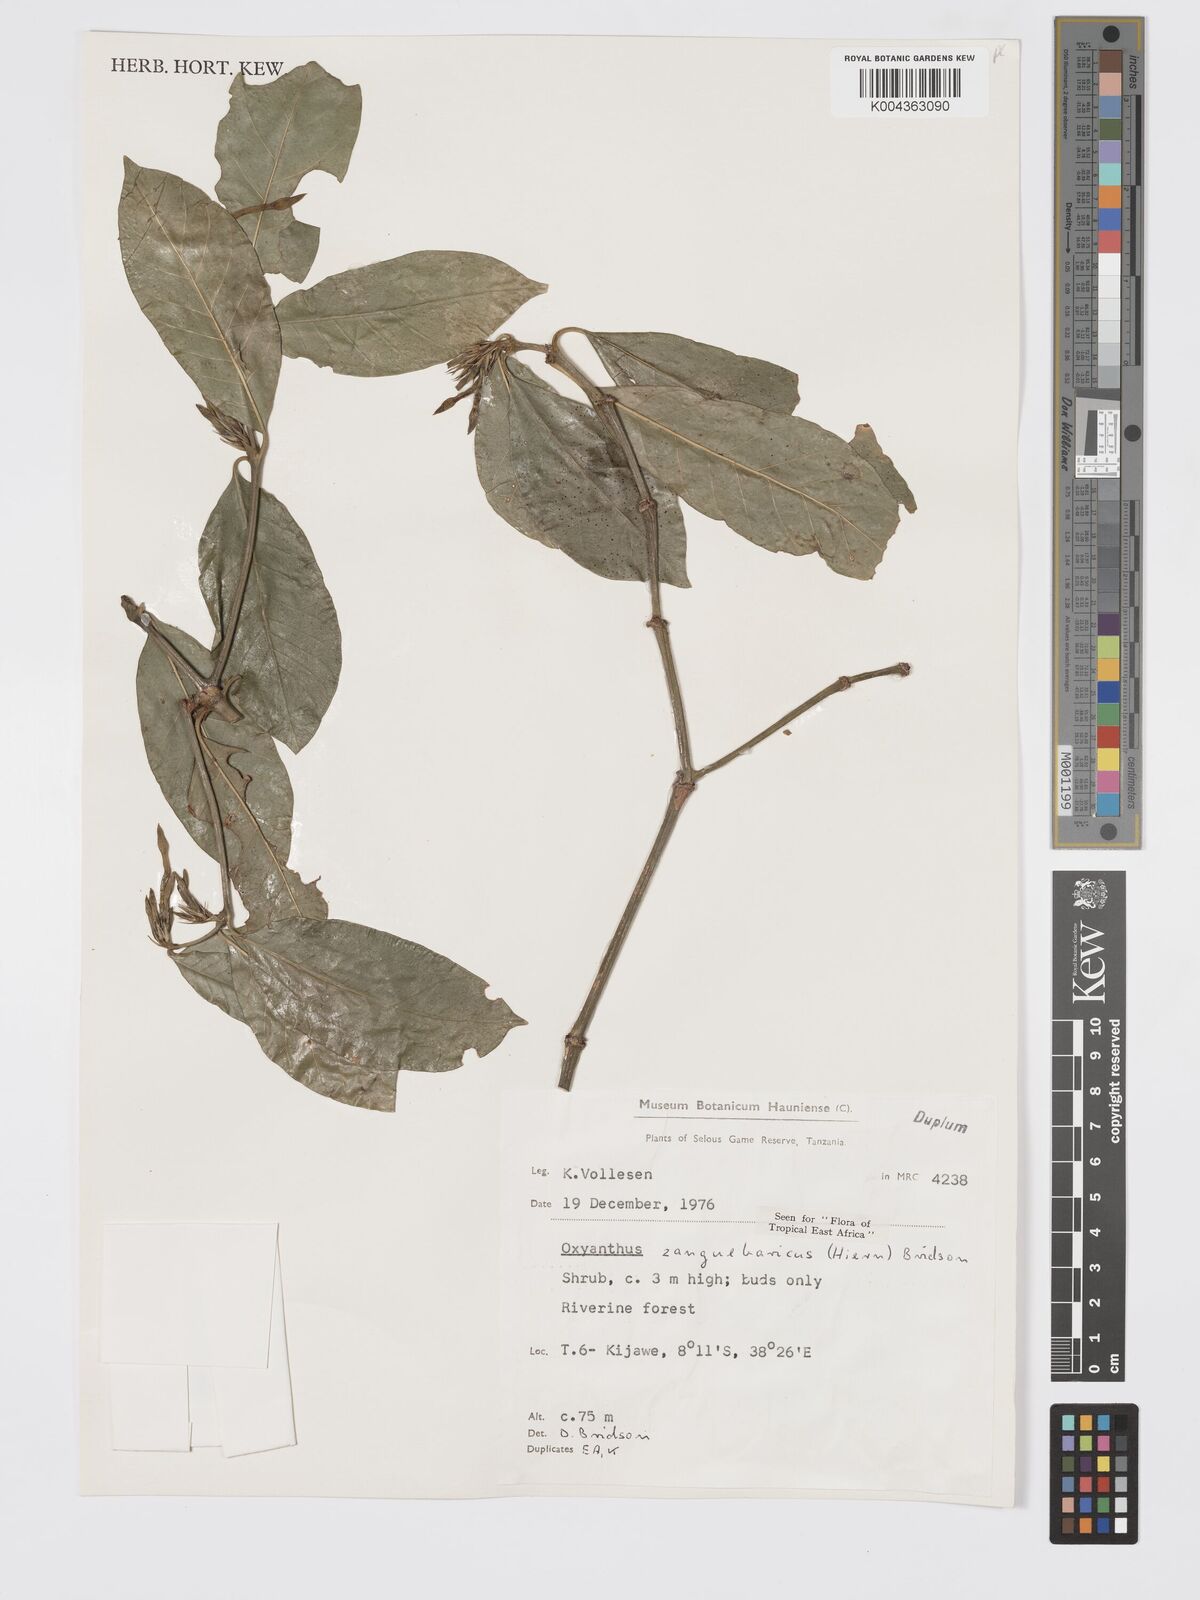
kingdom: Plantae
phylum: Tracheophyta
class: Magnoliopsida
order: Gentianales
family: Rubiaceae
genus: Oxyanthus
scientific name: Oxyanthus zanguebaricus
